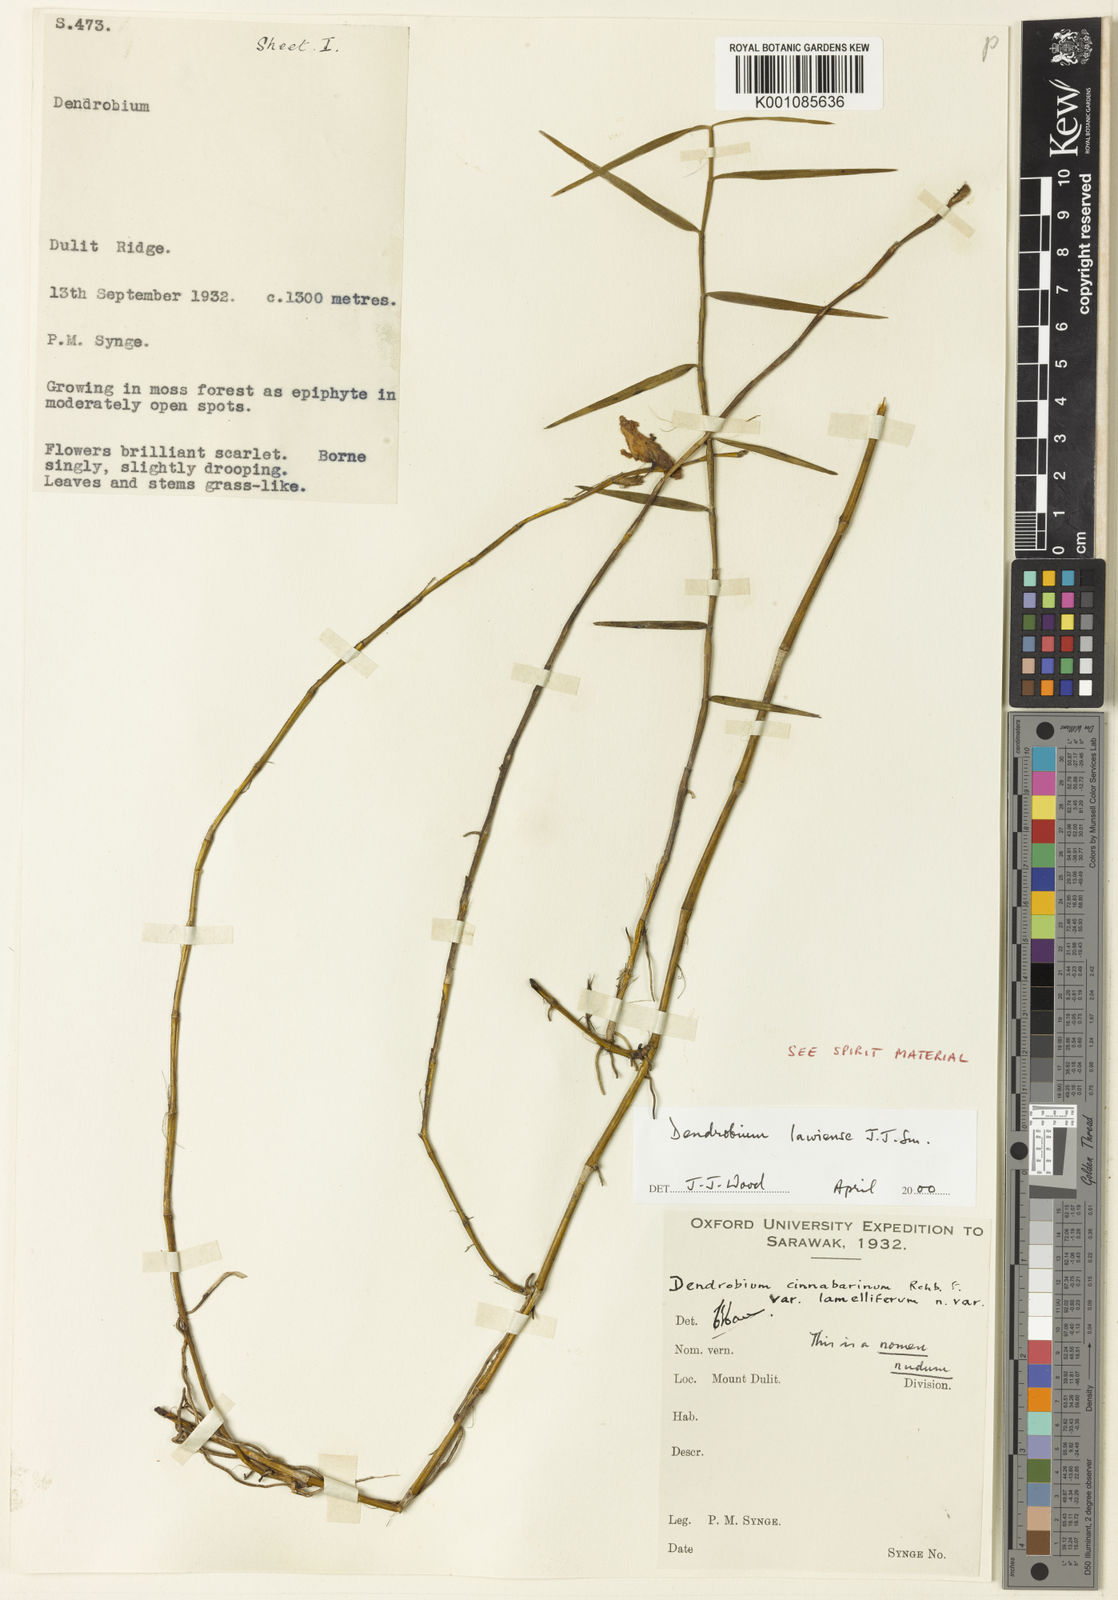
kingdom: Plantae
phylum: Tracheophyta
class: Liliopsida
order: Asparagales
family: Orchidaceae
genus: Dendrobium
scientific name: Dendrobium lawiense
